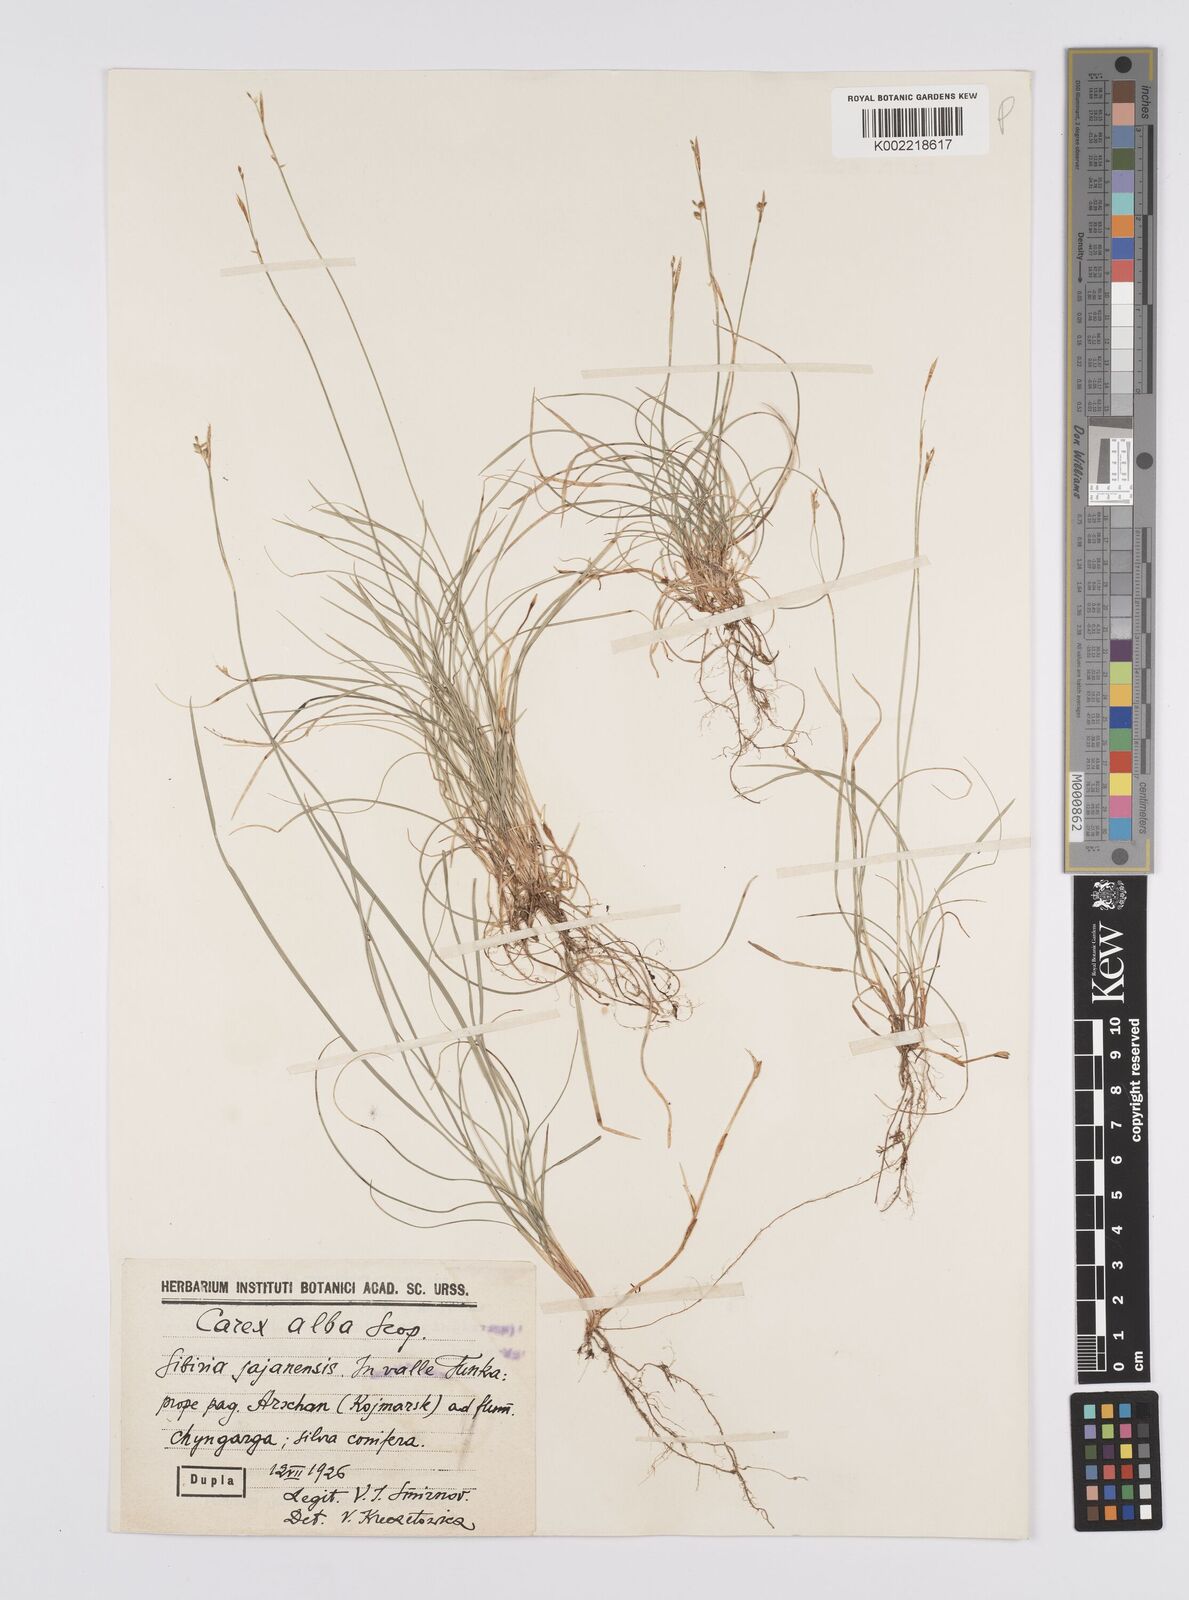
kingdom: Plantae
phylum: Tracheophyta
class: Liliopsida
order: Poales
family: Cyperaceae
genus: Carex
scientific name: Carex alba
